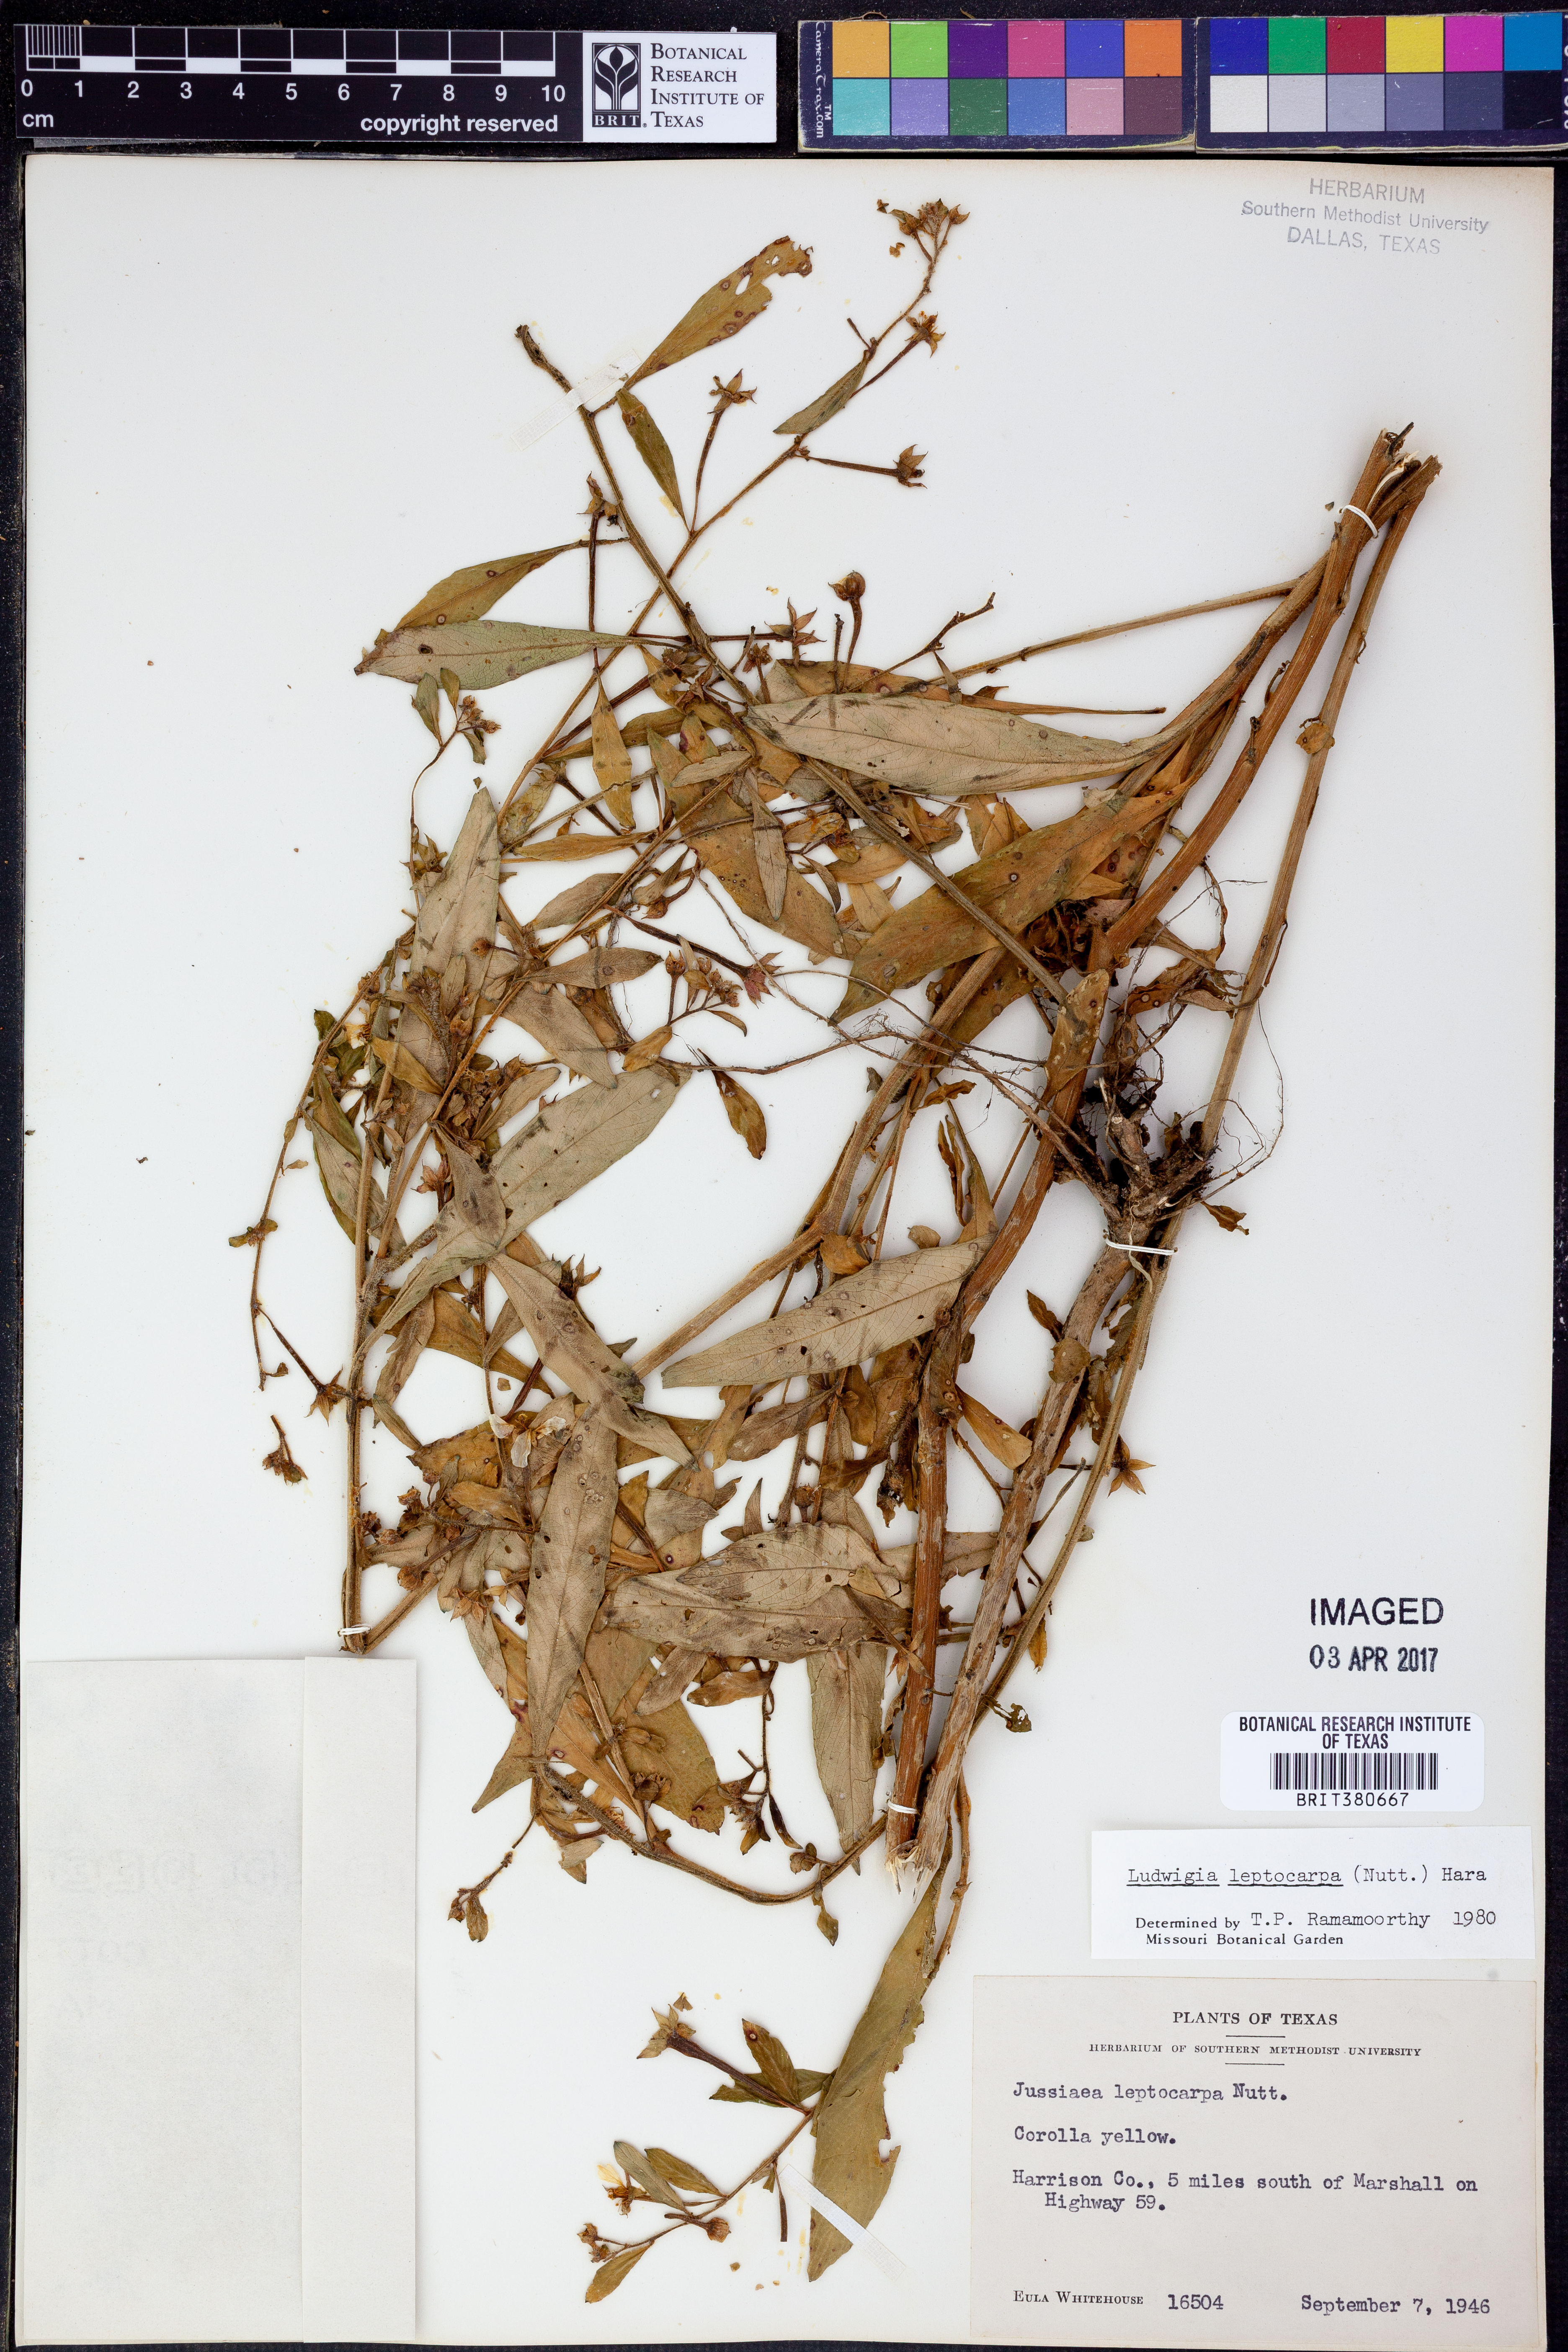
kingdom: Plantae
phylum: Tracheophyta
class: Magnoliopsida
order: Myrtales
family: Onagraceae
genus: Ludwigia
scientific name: Ludwigia leptocarpa
